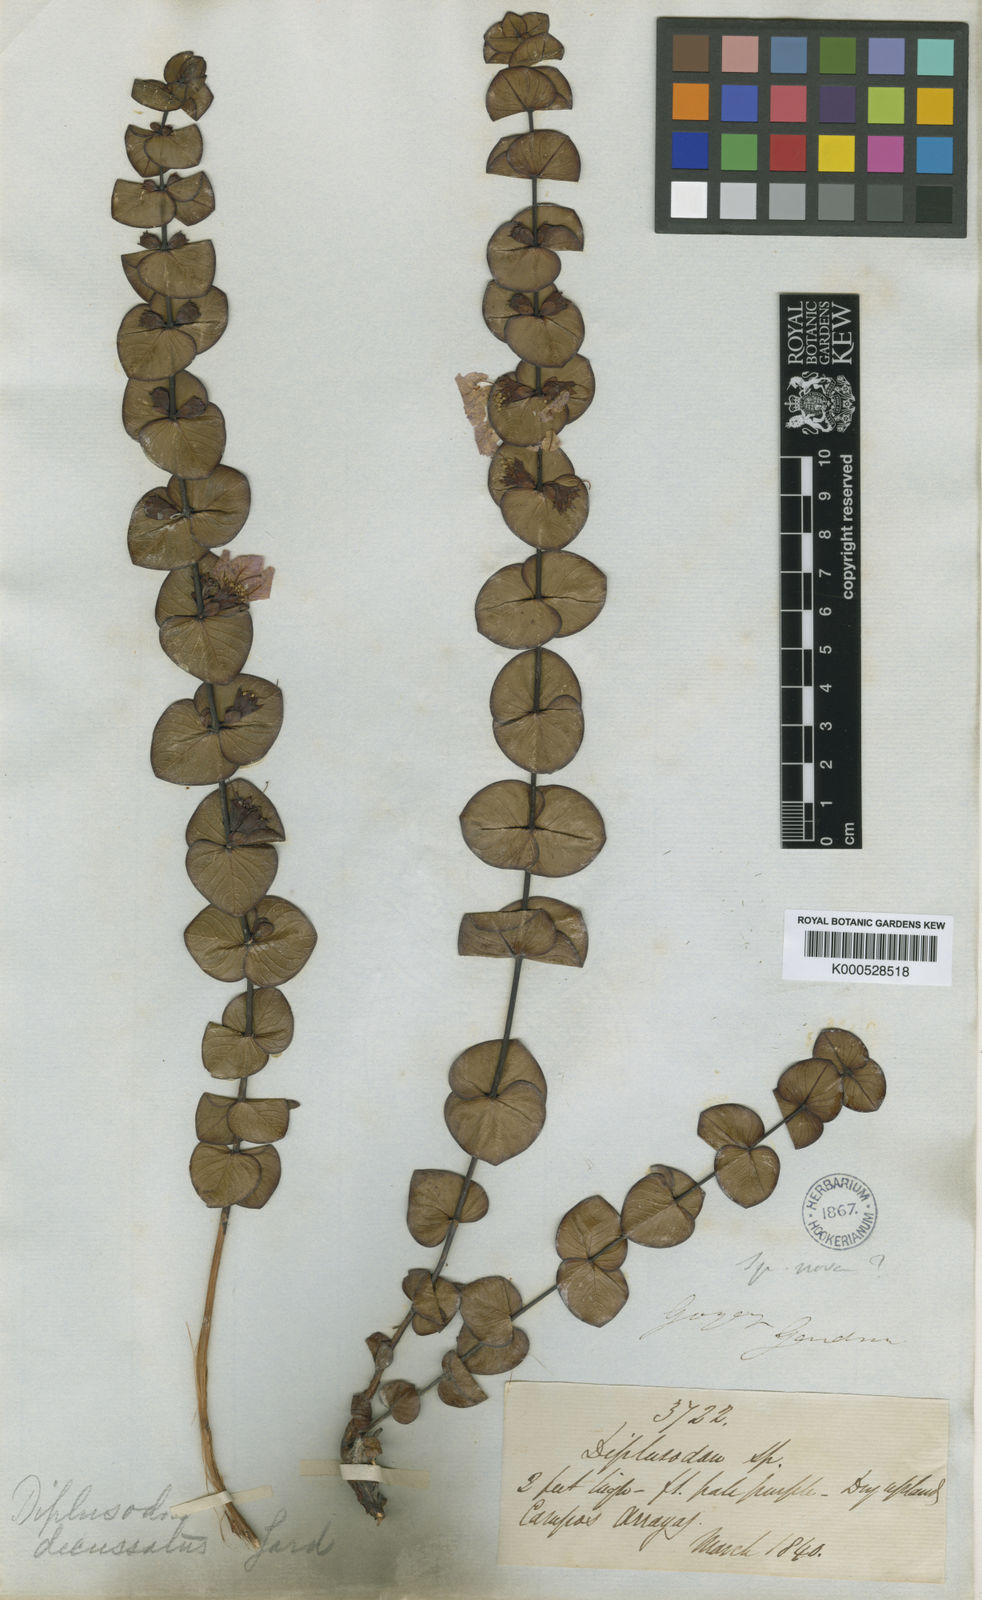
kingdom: Plantae
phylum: Tracheophyta
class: Magnoliopsida
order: Myrtales
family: Lythraceae
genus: Diplusodon
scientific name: Diplusodon decussatus
